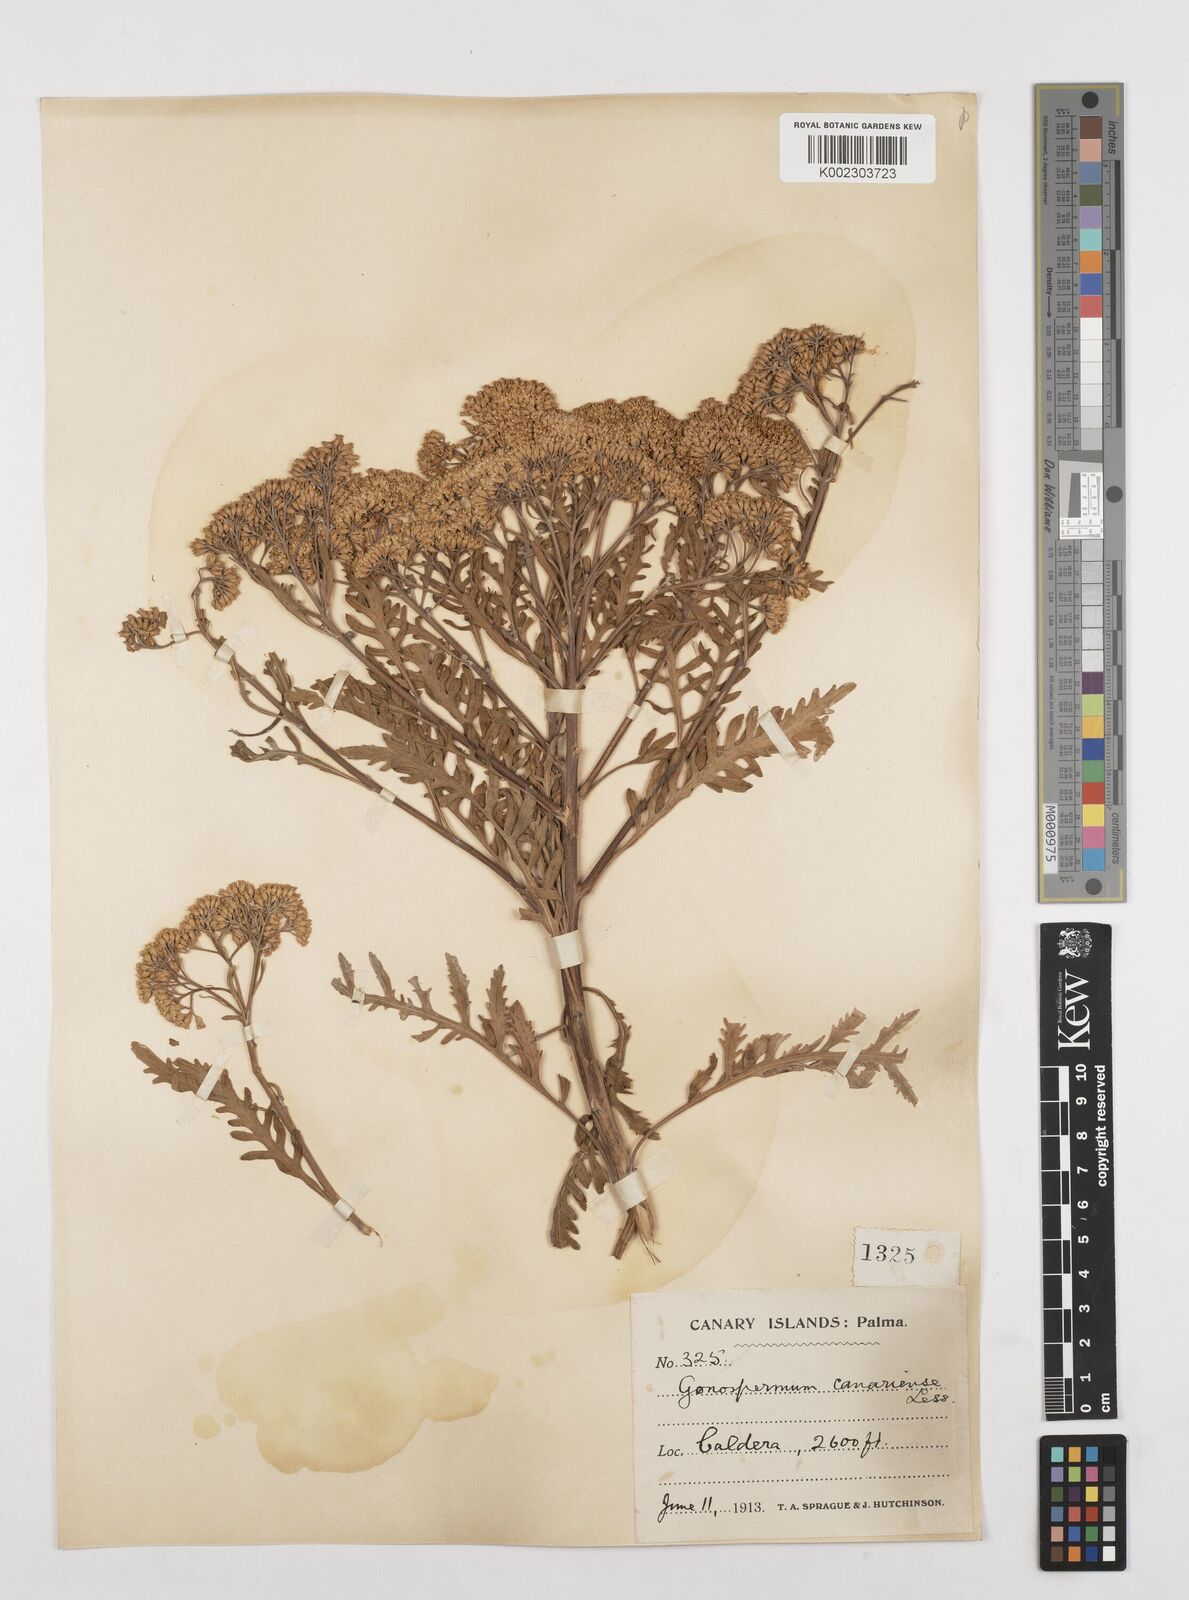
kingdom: Plantae
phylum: Tracheophyta
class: Magnoliopsida
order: Asterales
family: Asteraceae
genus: Gonospermum
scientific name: Gonospermum canariense
